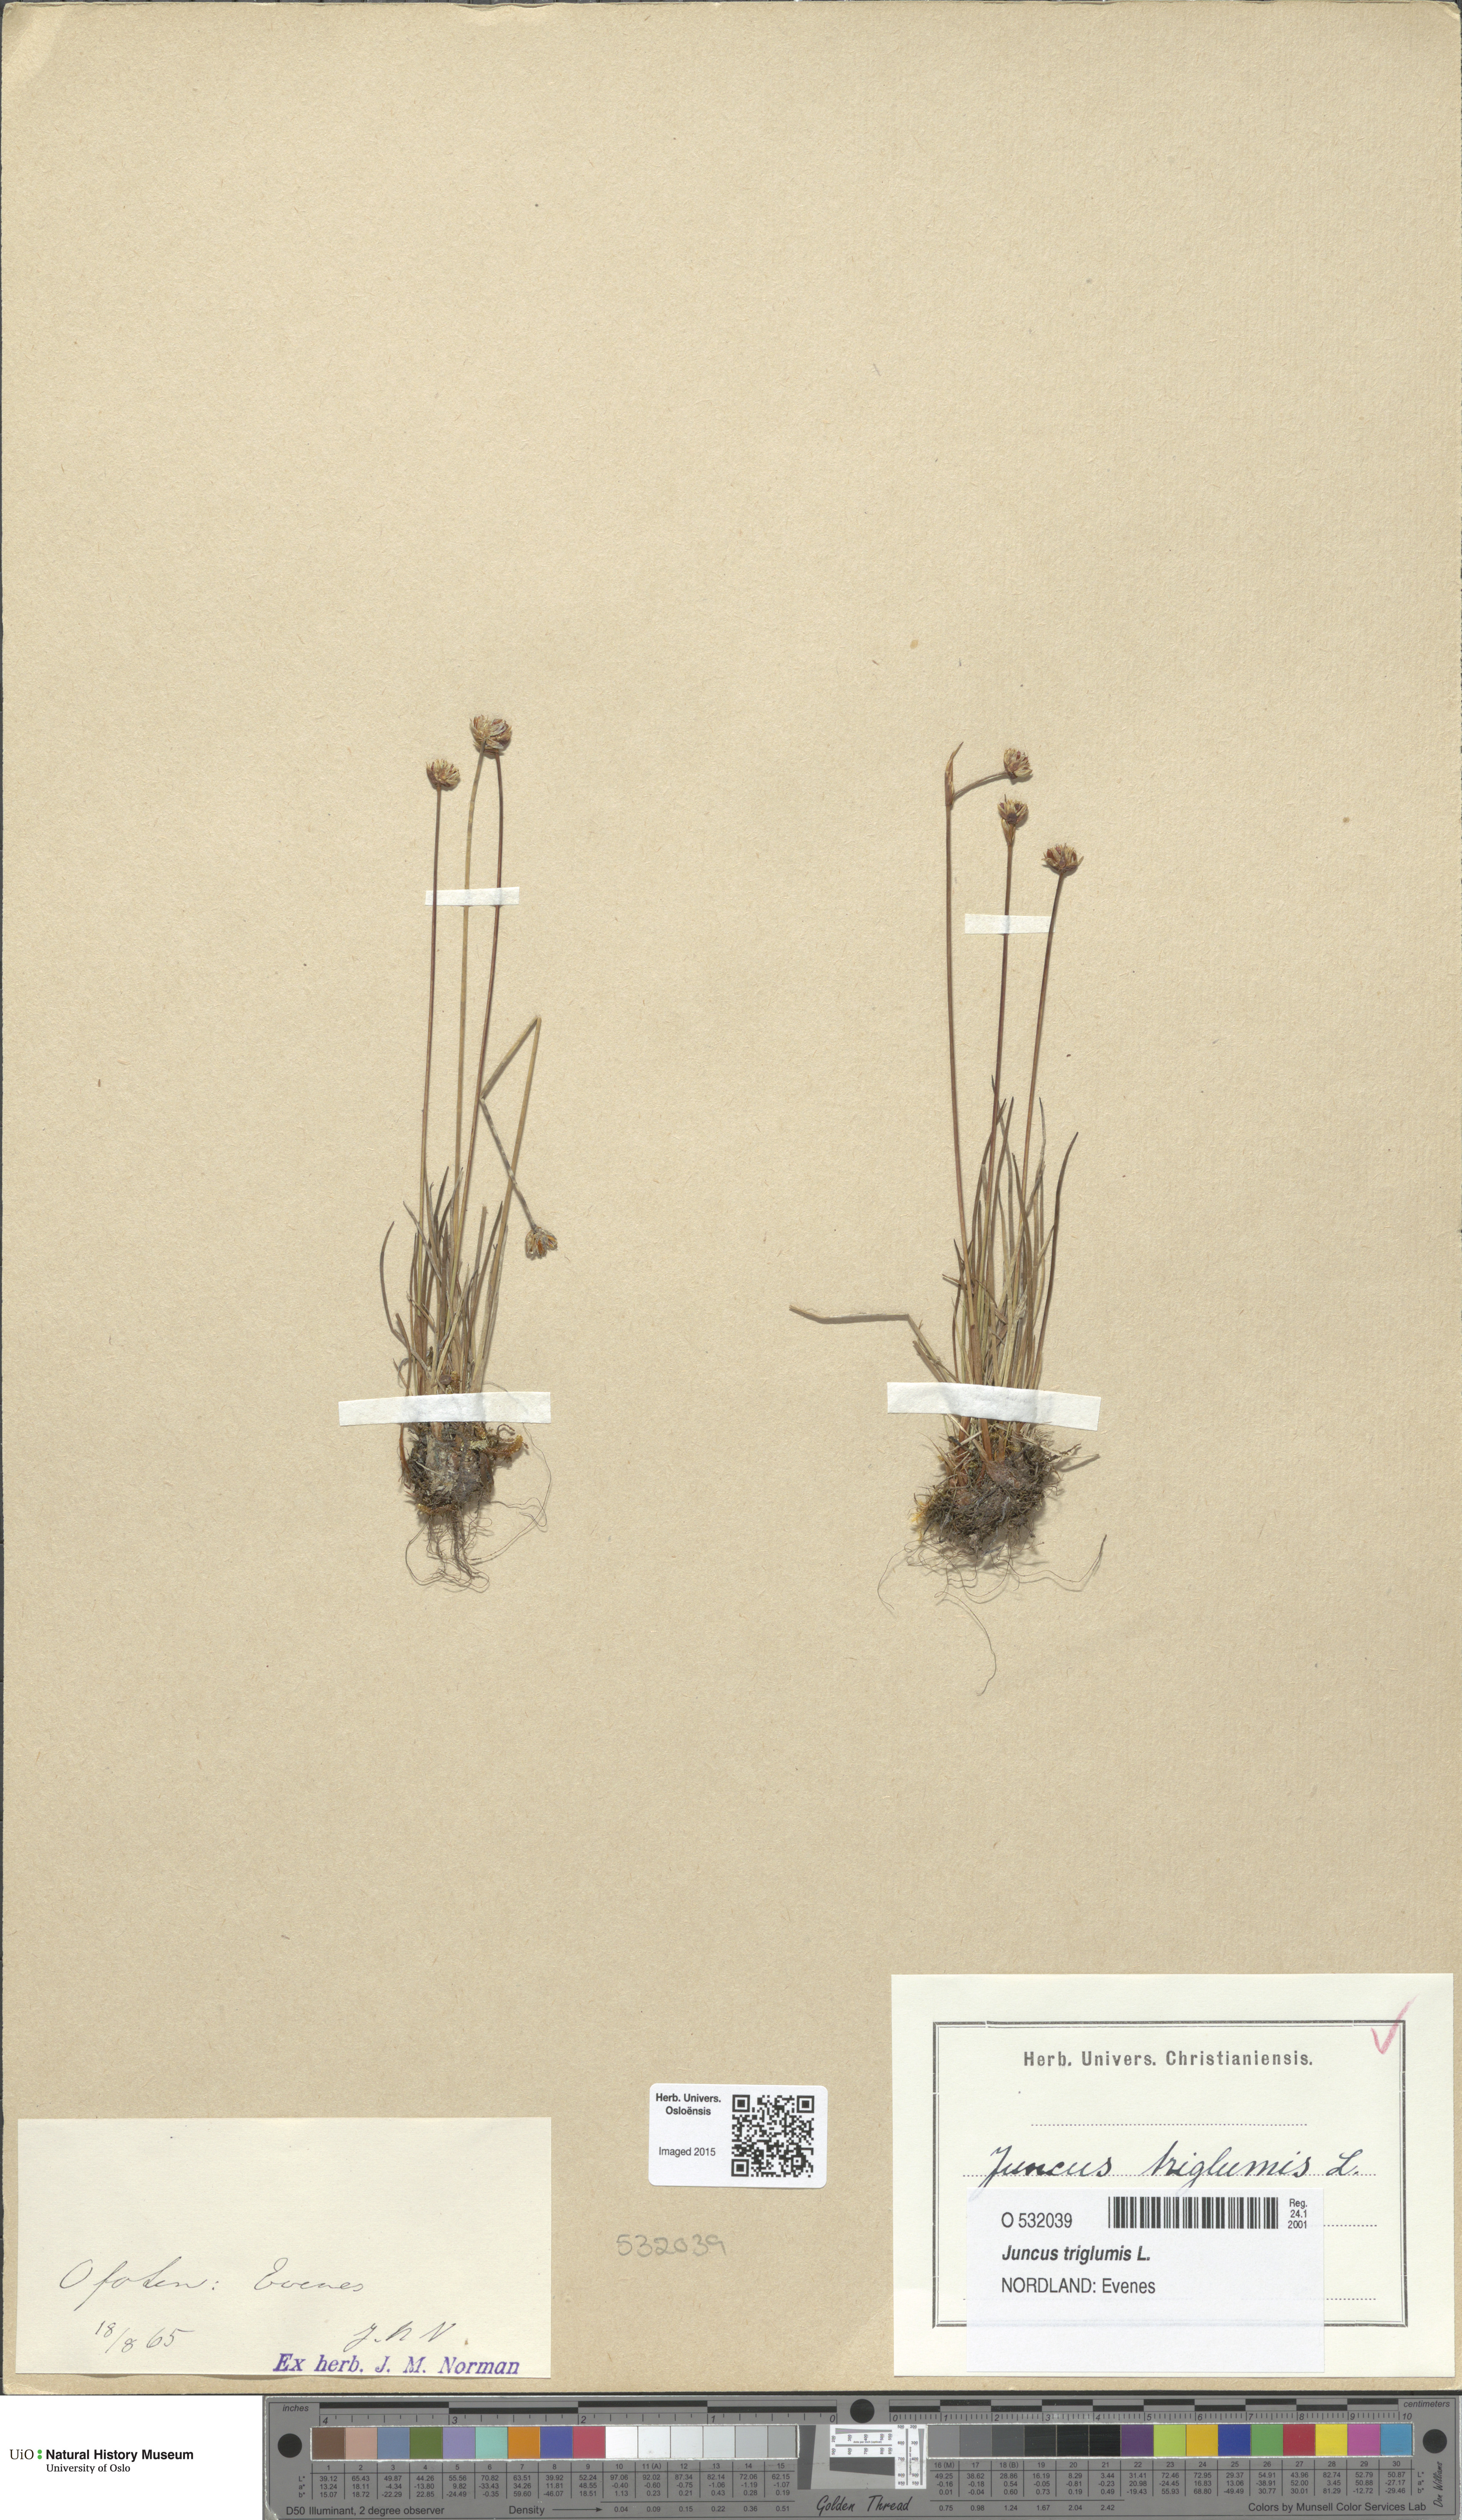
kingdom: Plantae
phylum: Tracheophyta
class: Liliopsida
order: Poales
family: Juncaceae
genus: Juncus
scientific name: Juncus triglumis
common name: Three-flowered rush
